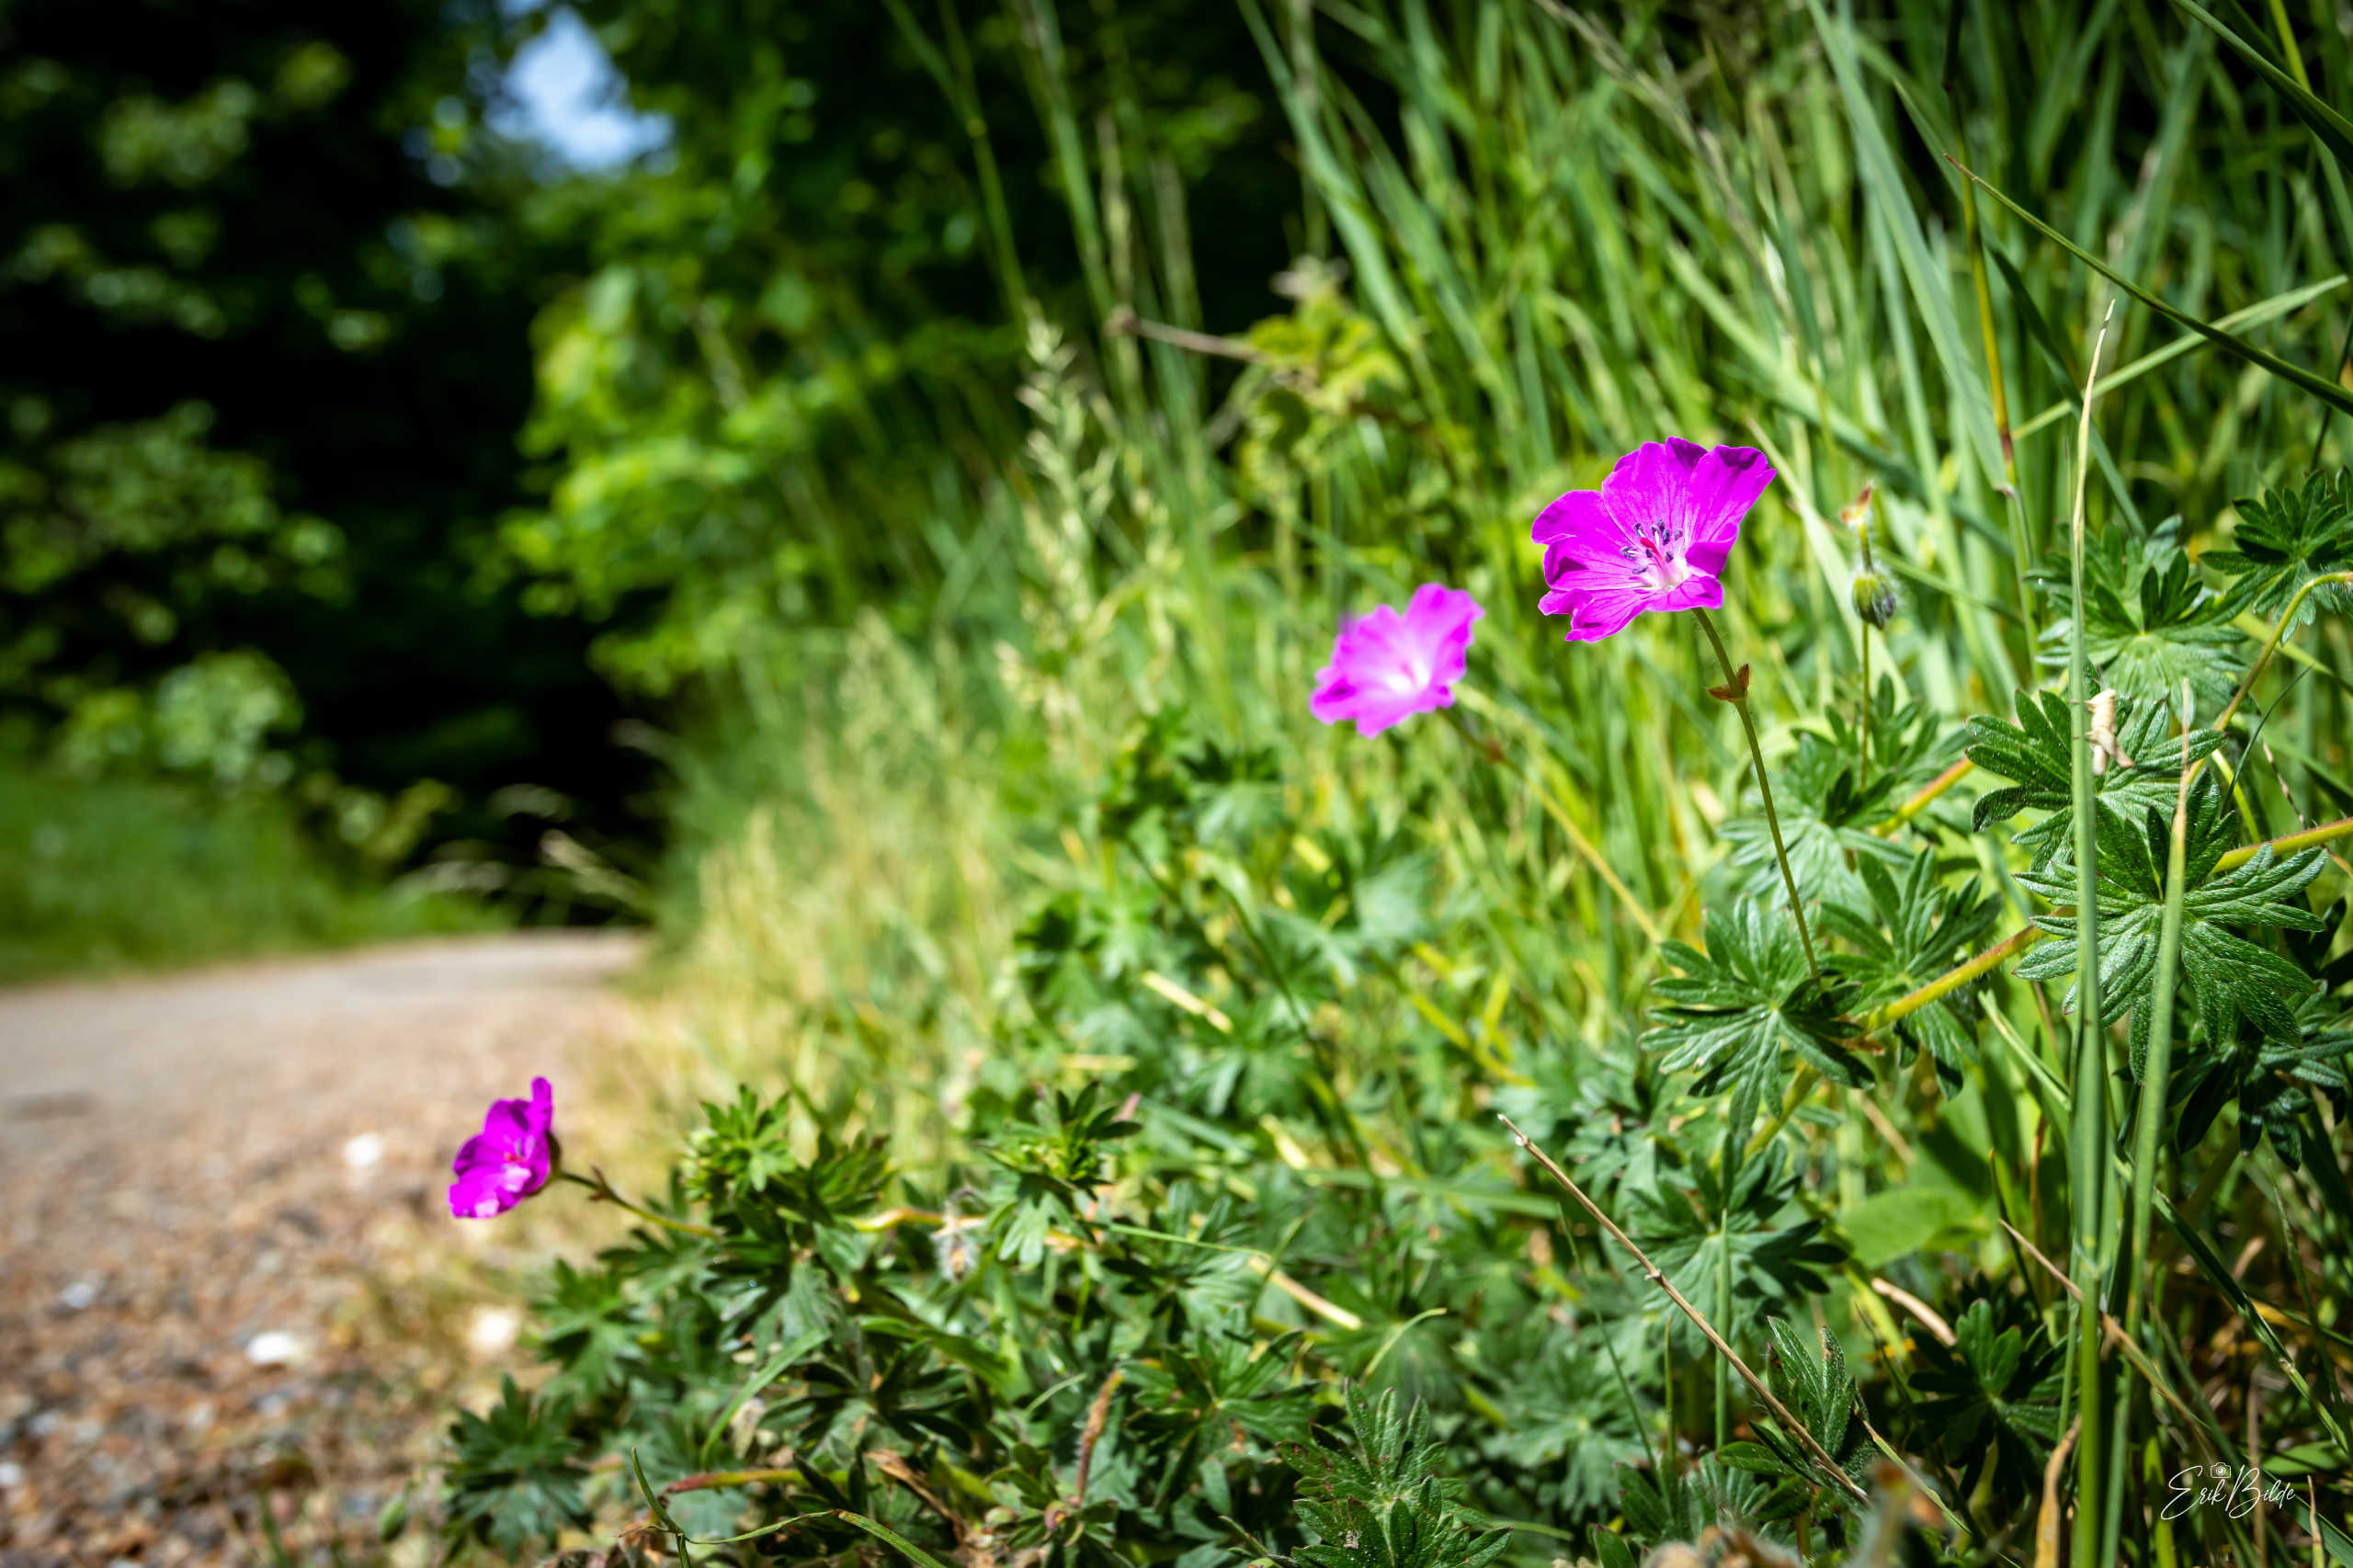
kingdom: Plantae
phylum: Tracheophyta
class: Magnoliopsida
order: Geraniales
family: Geraniaceae
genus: Geranium
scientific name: Geranium sanguineum
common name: Blodrød storkenæb
